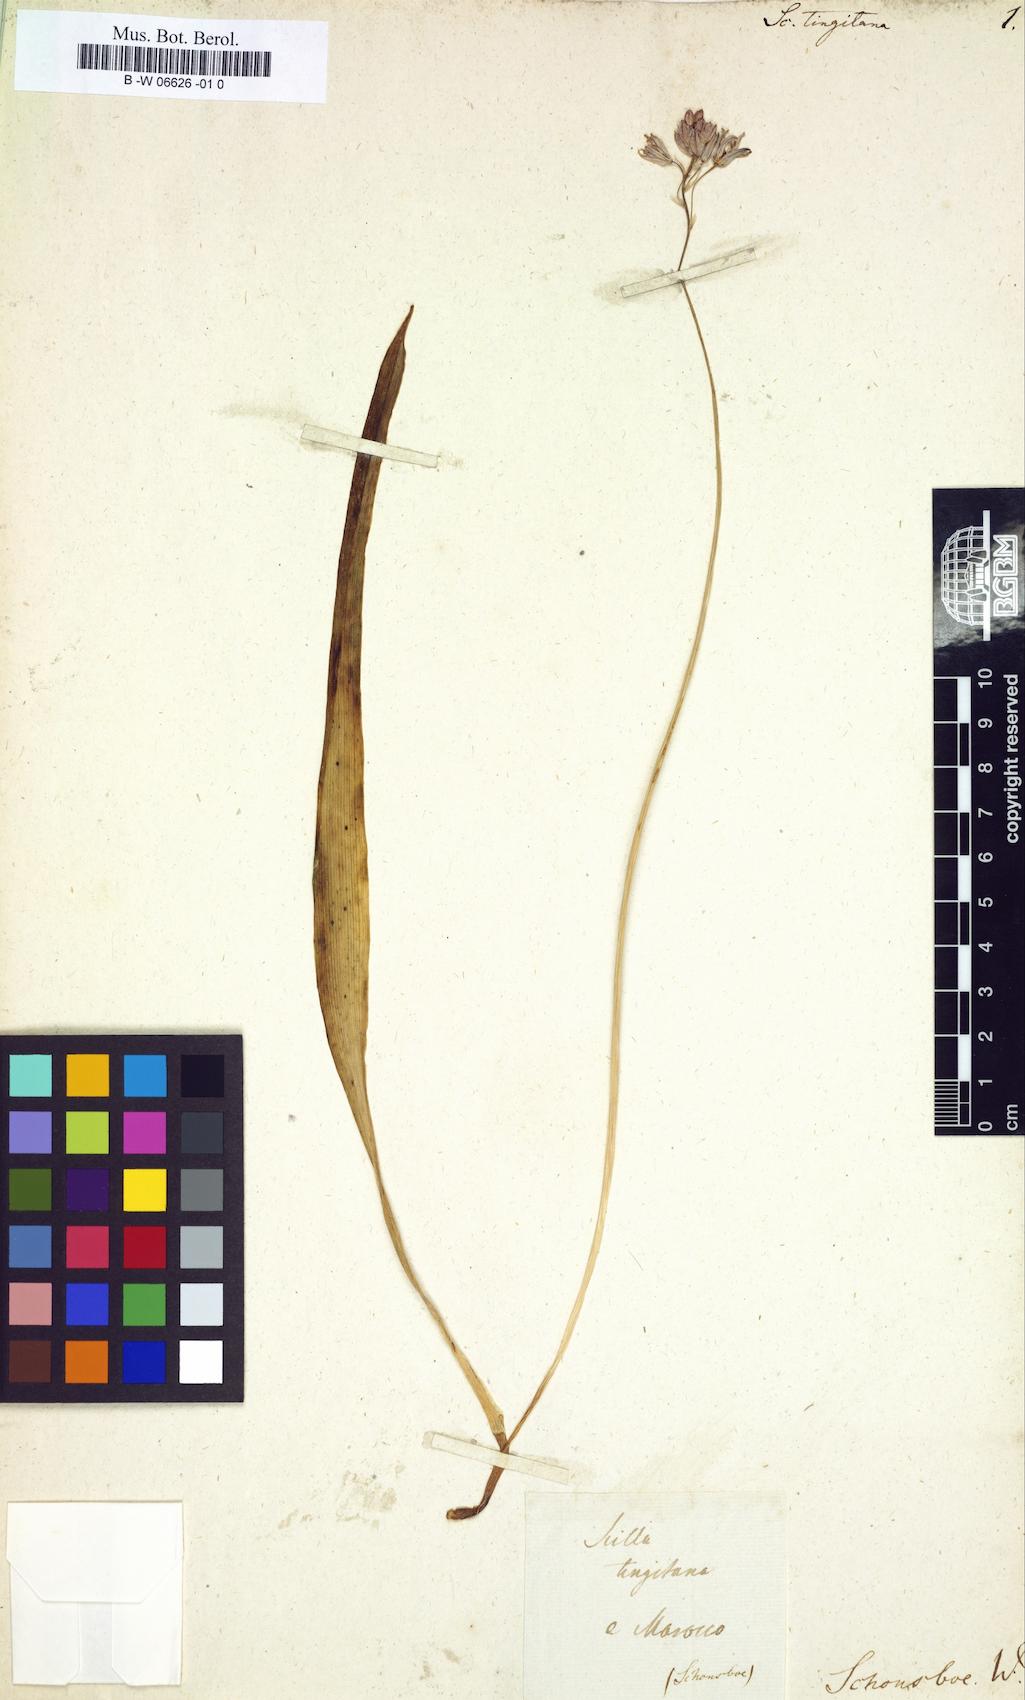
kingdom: Plantae
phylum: Tracheophyta
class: Liliopsida
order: Asparagales
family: Asparagaceae
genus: Scilla
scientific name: Scilla monophyllos
